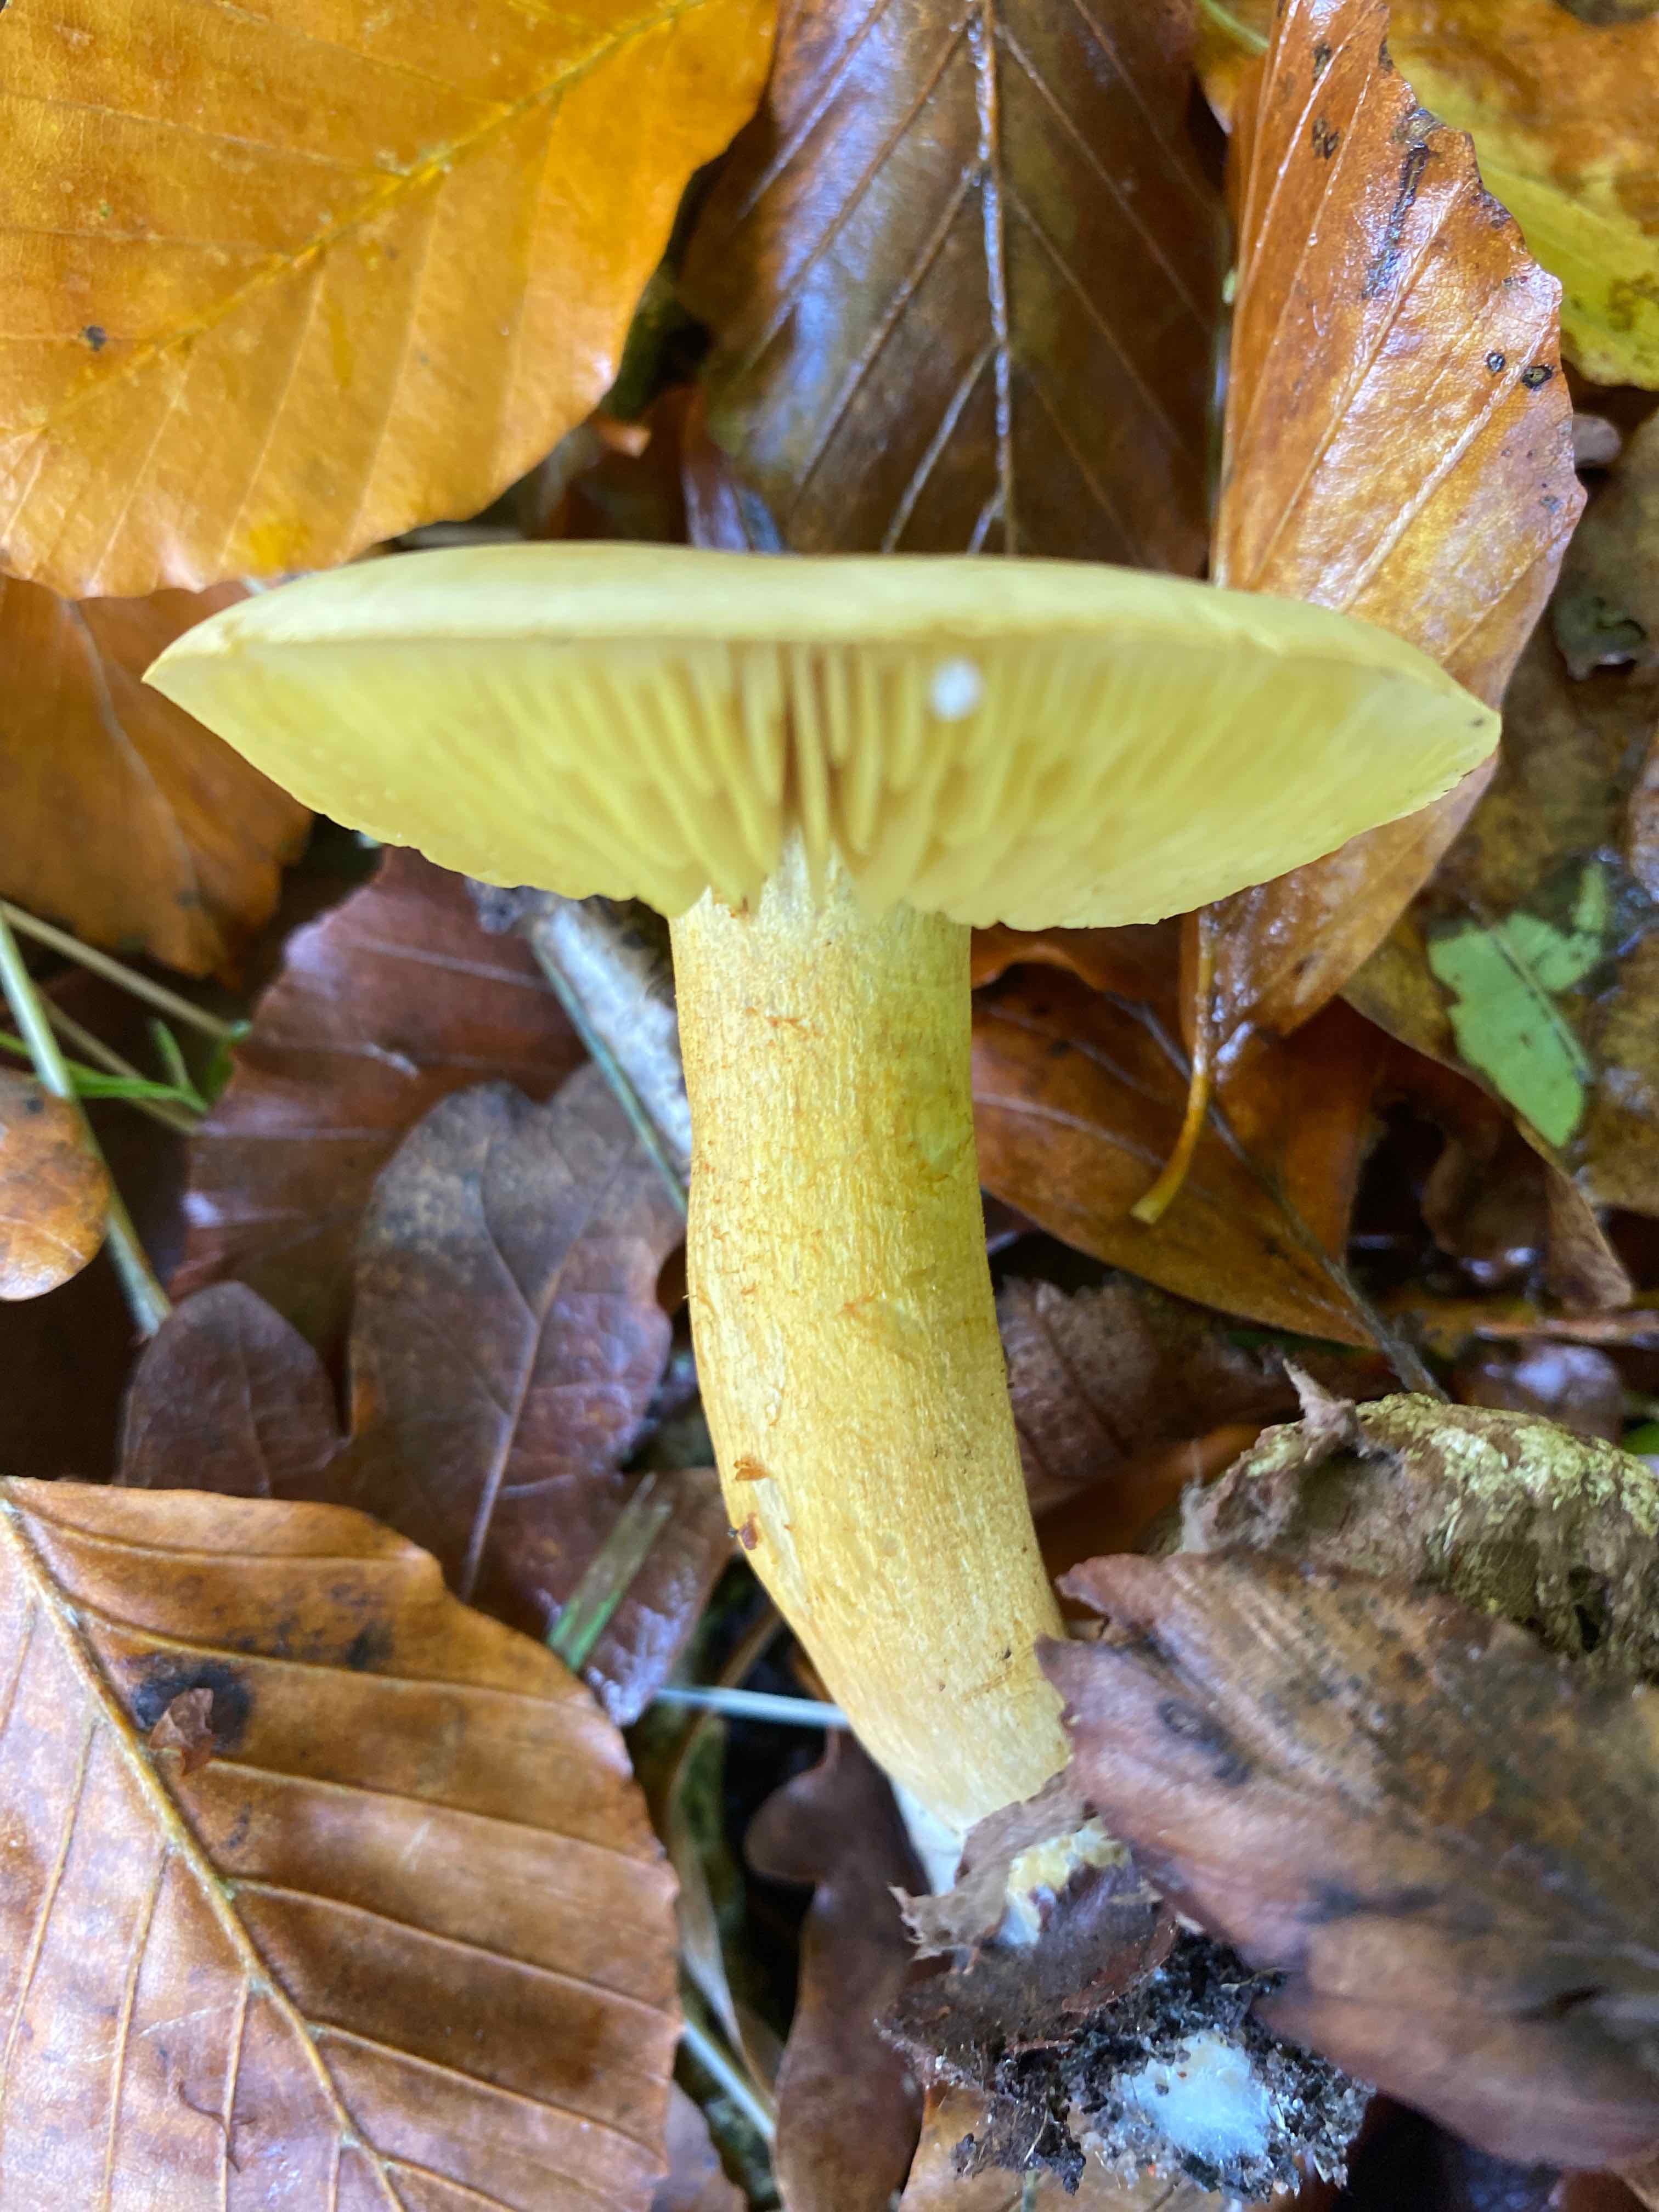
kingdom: Fungi
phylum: Basidiomycota
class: Agaricomycetes
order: Agaricales
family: Tricholomataceae
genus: Tricholoma
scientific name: Tricholoma sulphureum
